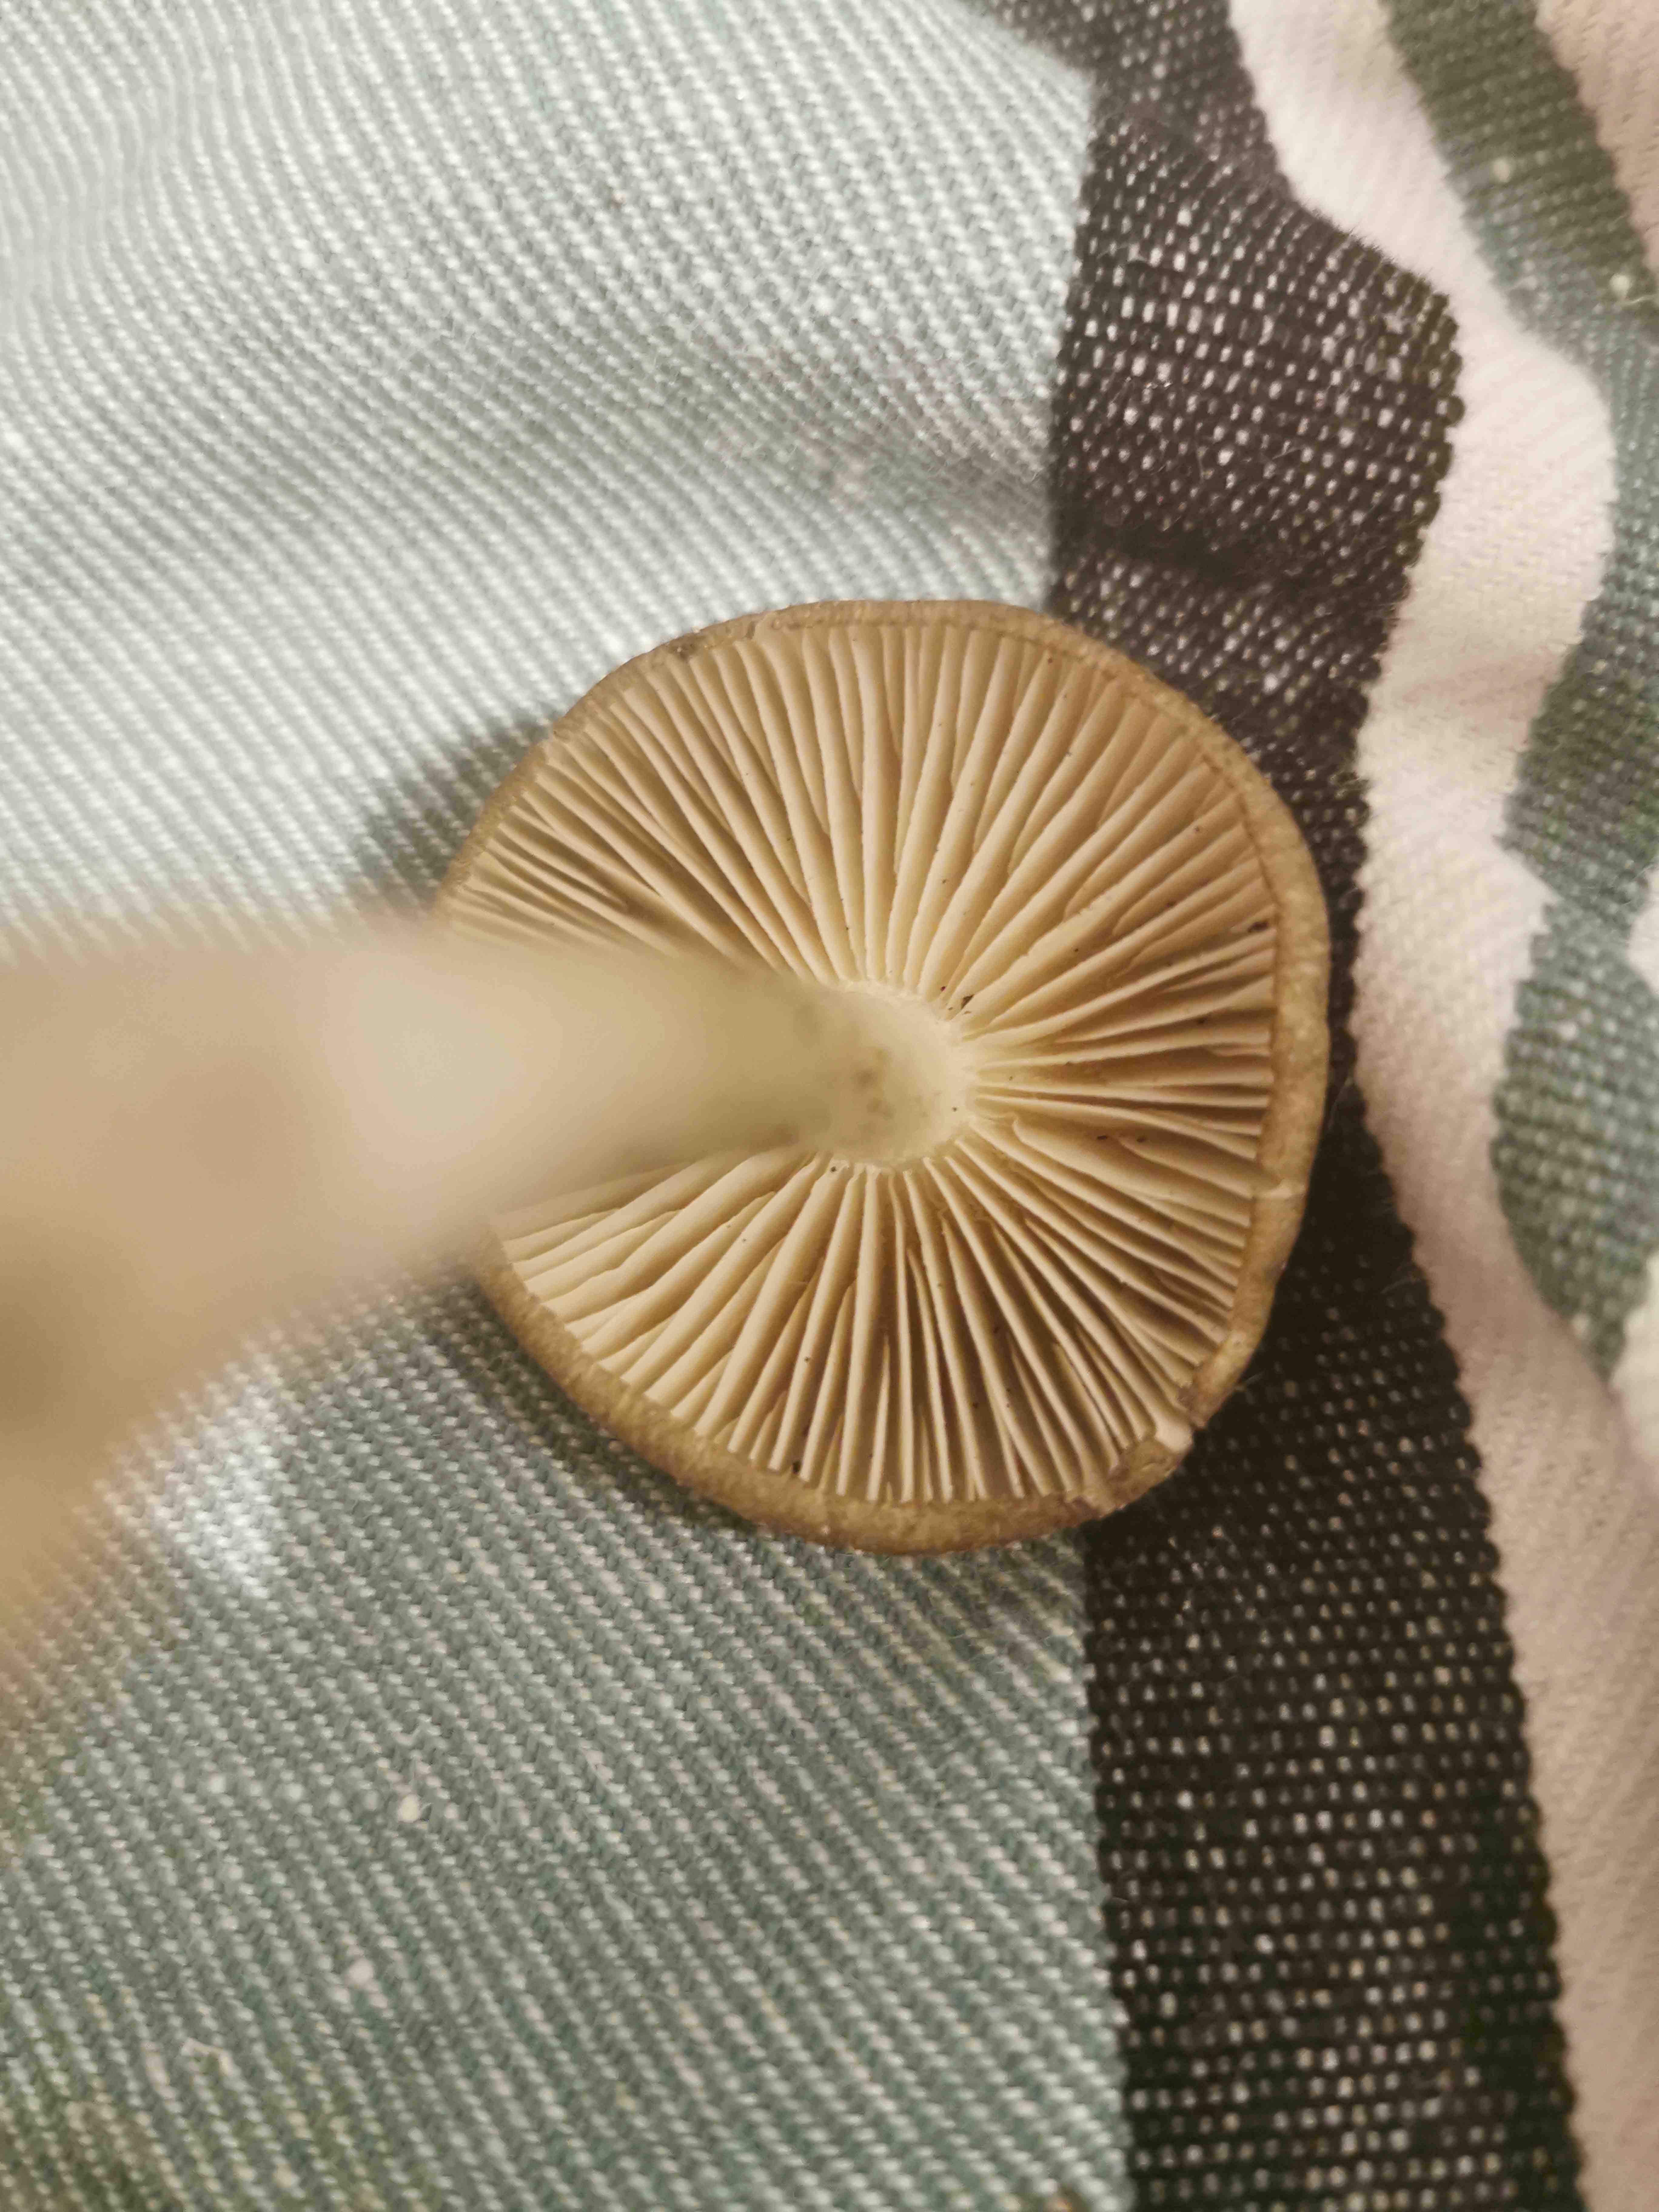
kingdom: Fungi
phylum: Basidiomycota
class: Agaricomycetes
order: Agaricales
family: Entolomataceae
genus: Entoloma
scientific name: Entoloma
